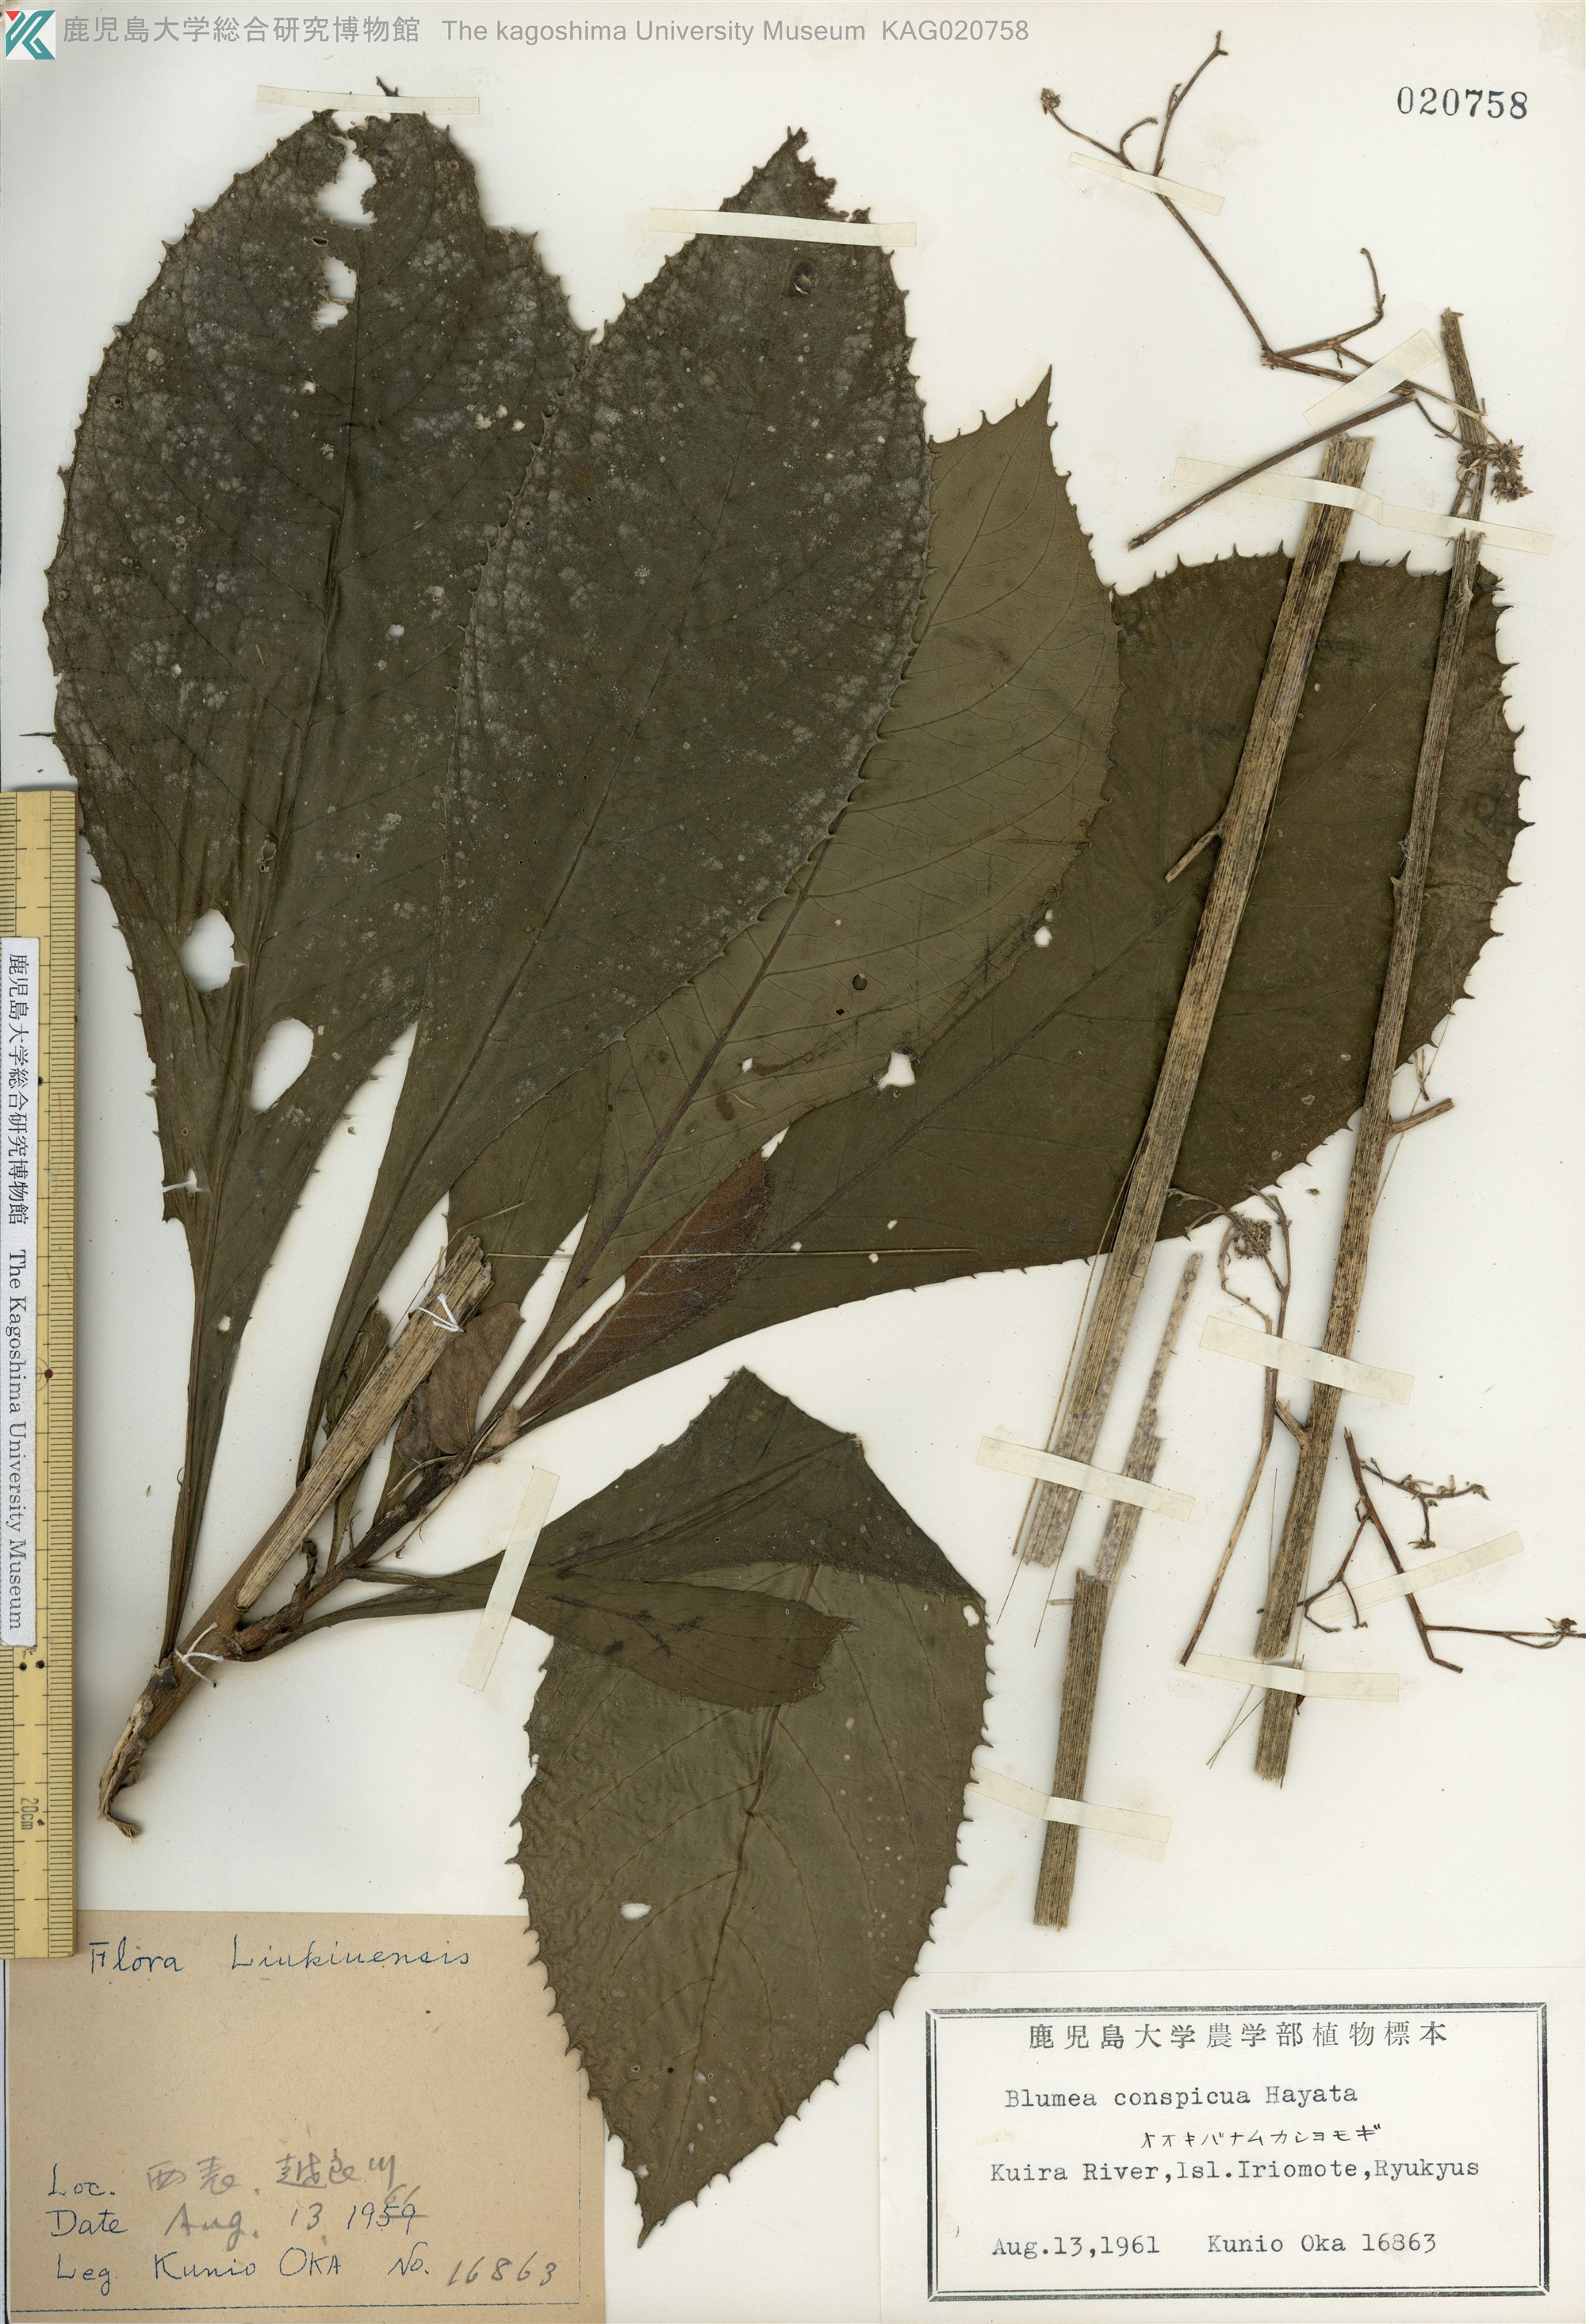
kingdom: Plantae
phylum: Tracheophyta
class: Magnoliopsida
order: Asterales
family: Asteraceae
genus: Blumea
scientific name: Blumea conspicua
